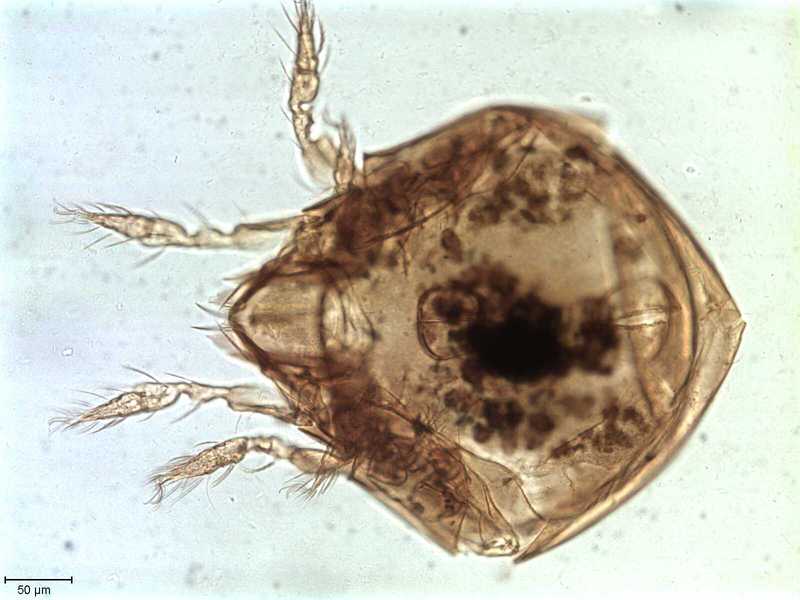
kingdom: Animalia
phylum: Arthropoda
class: Arachnida
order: Sarcoptiformes
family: Tegoribatidae
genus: Plakoribates
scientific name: Plakoribates multicuspidatus
